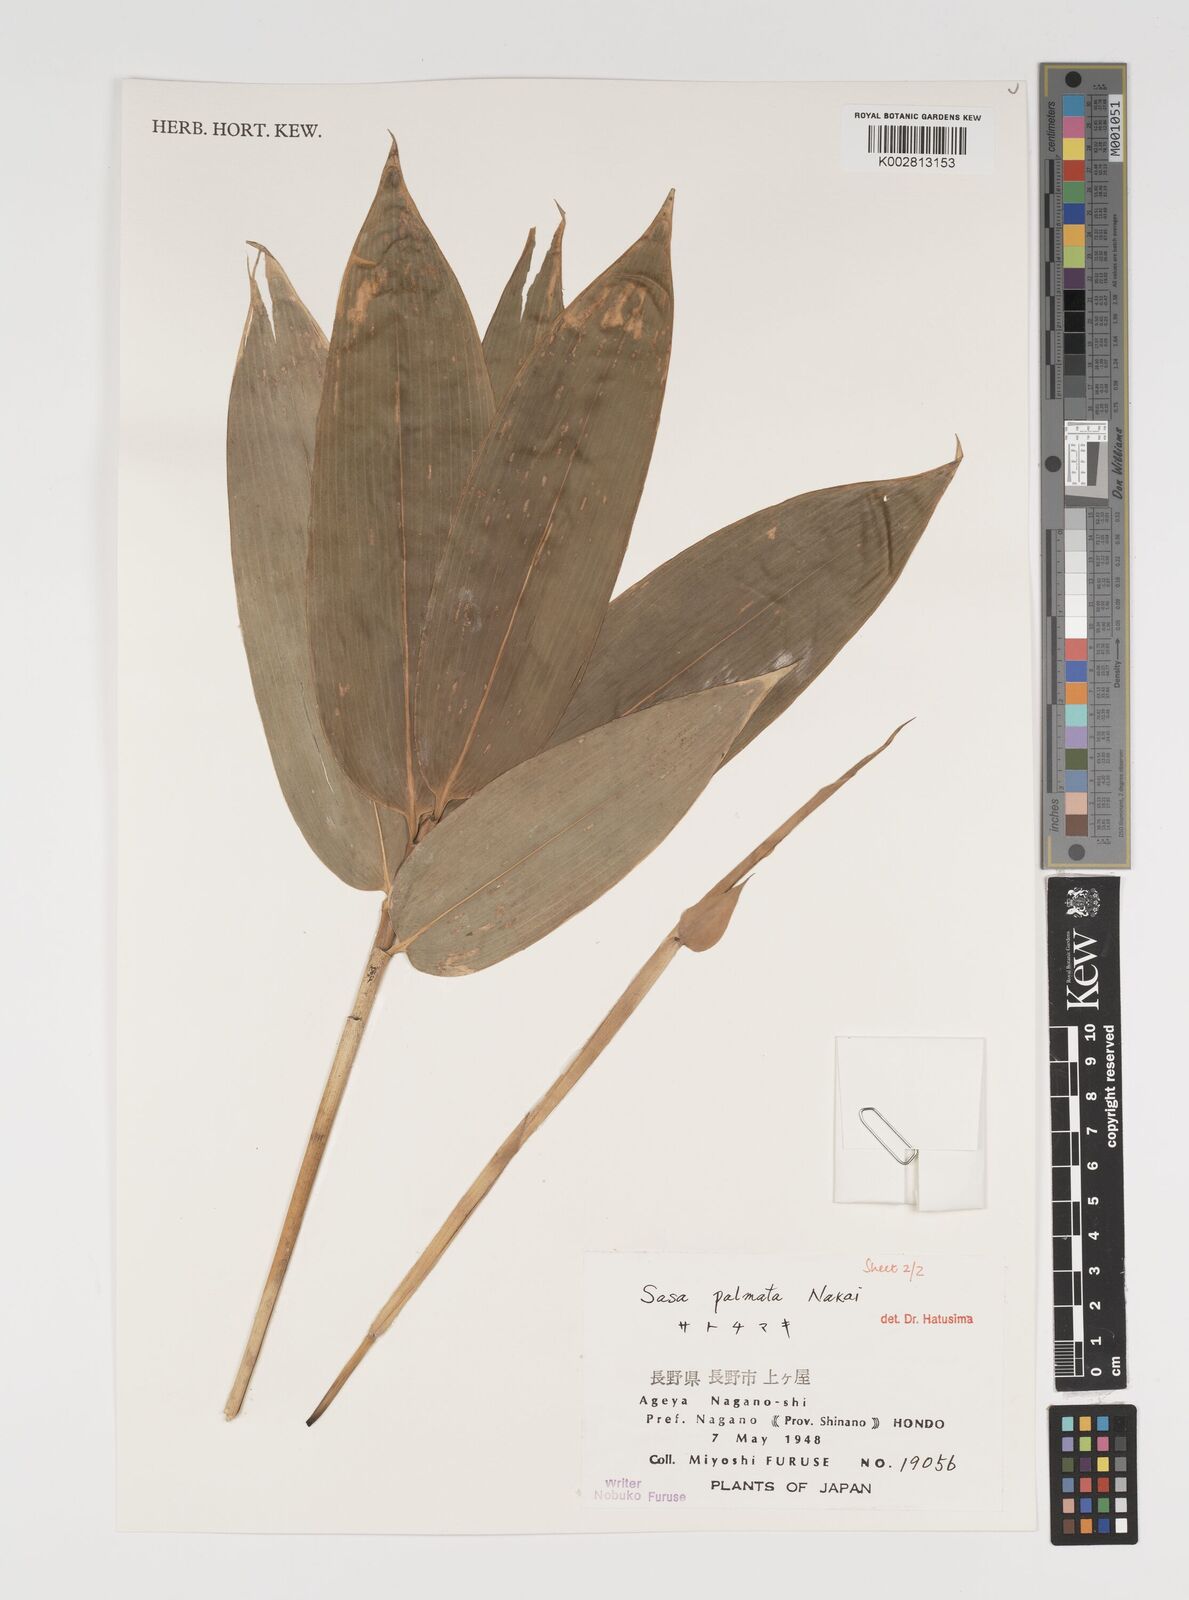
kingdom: Plantae
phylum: Tracheophyta
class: Liliopsida
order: Poales
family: Poaceae
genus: Sasa
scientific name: Sasa palmata
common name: Broad-leaved bamboo
